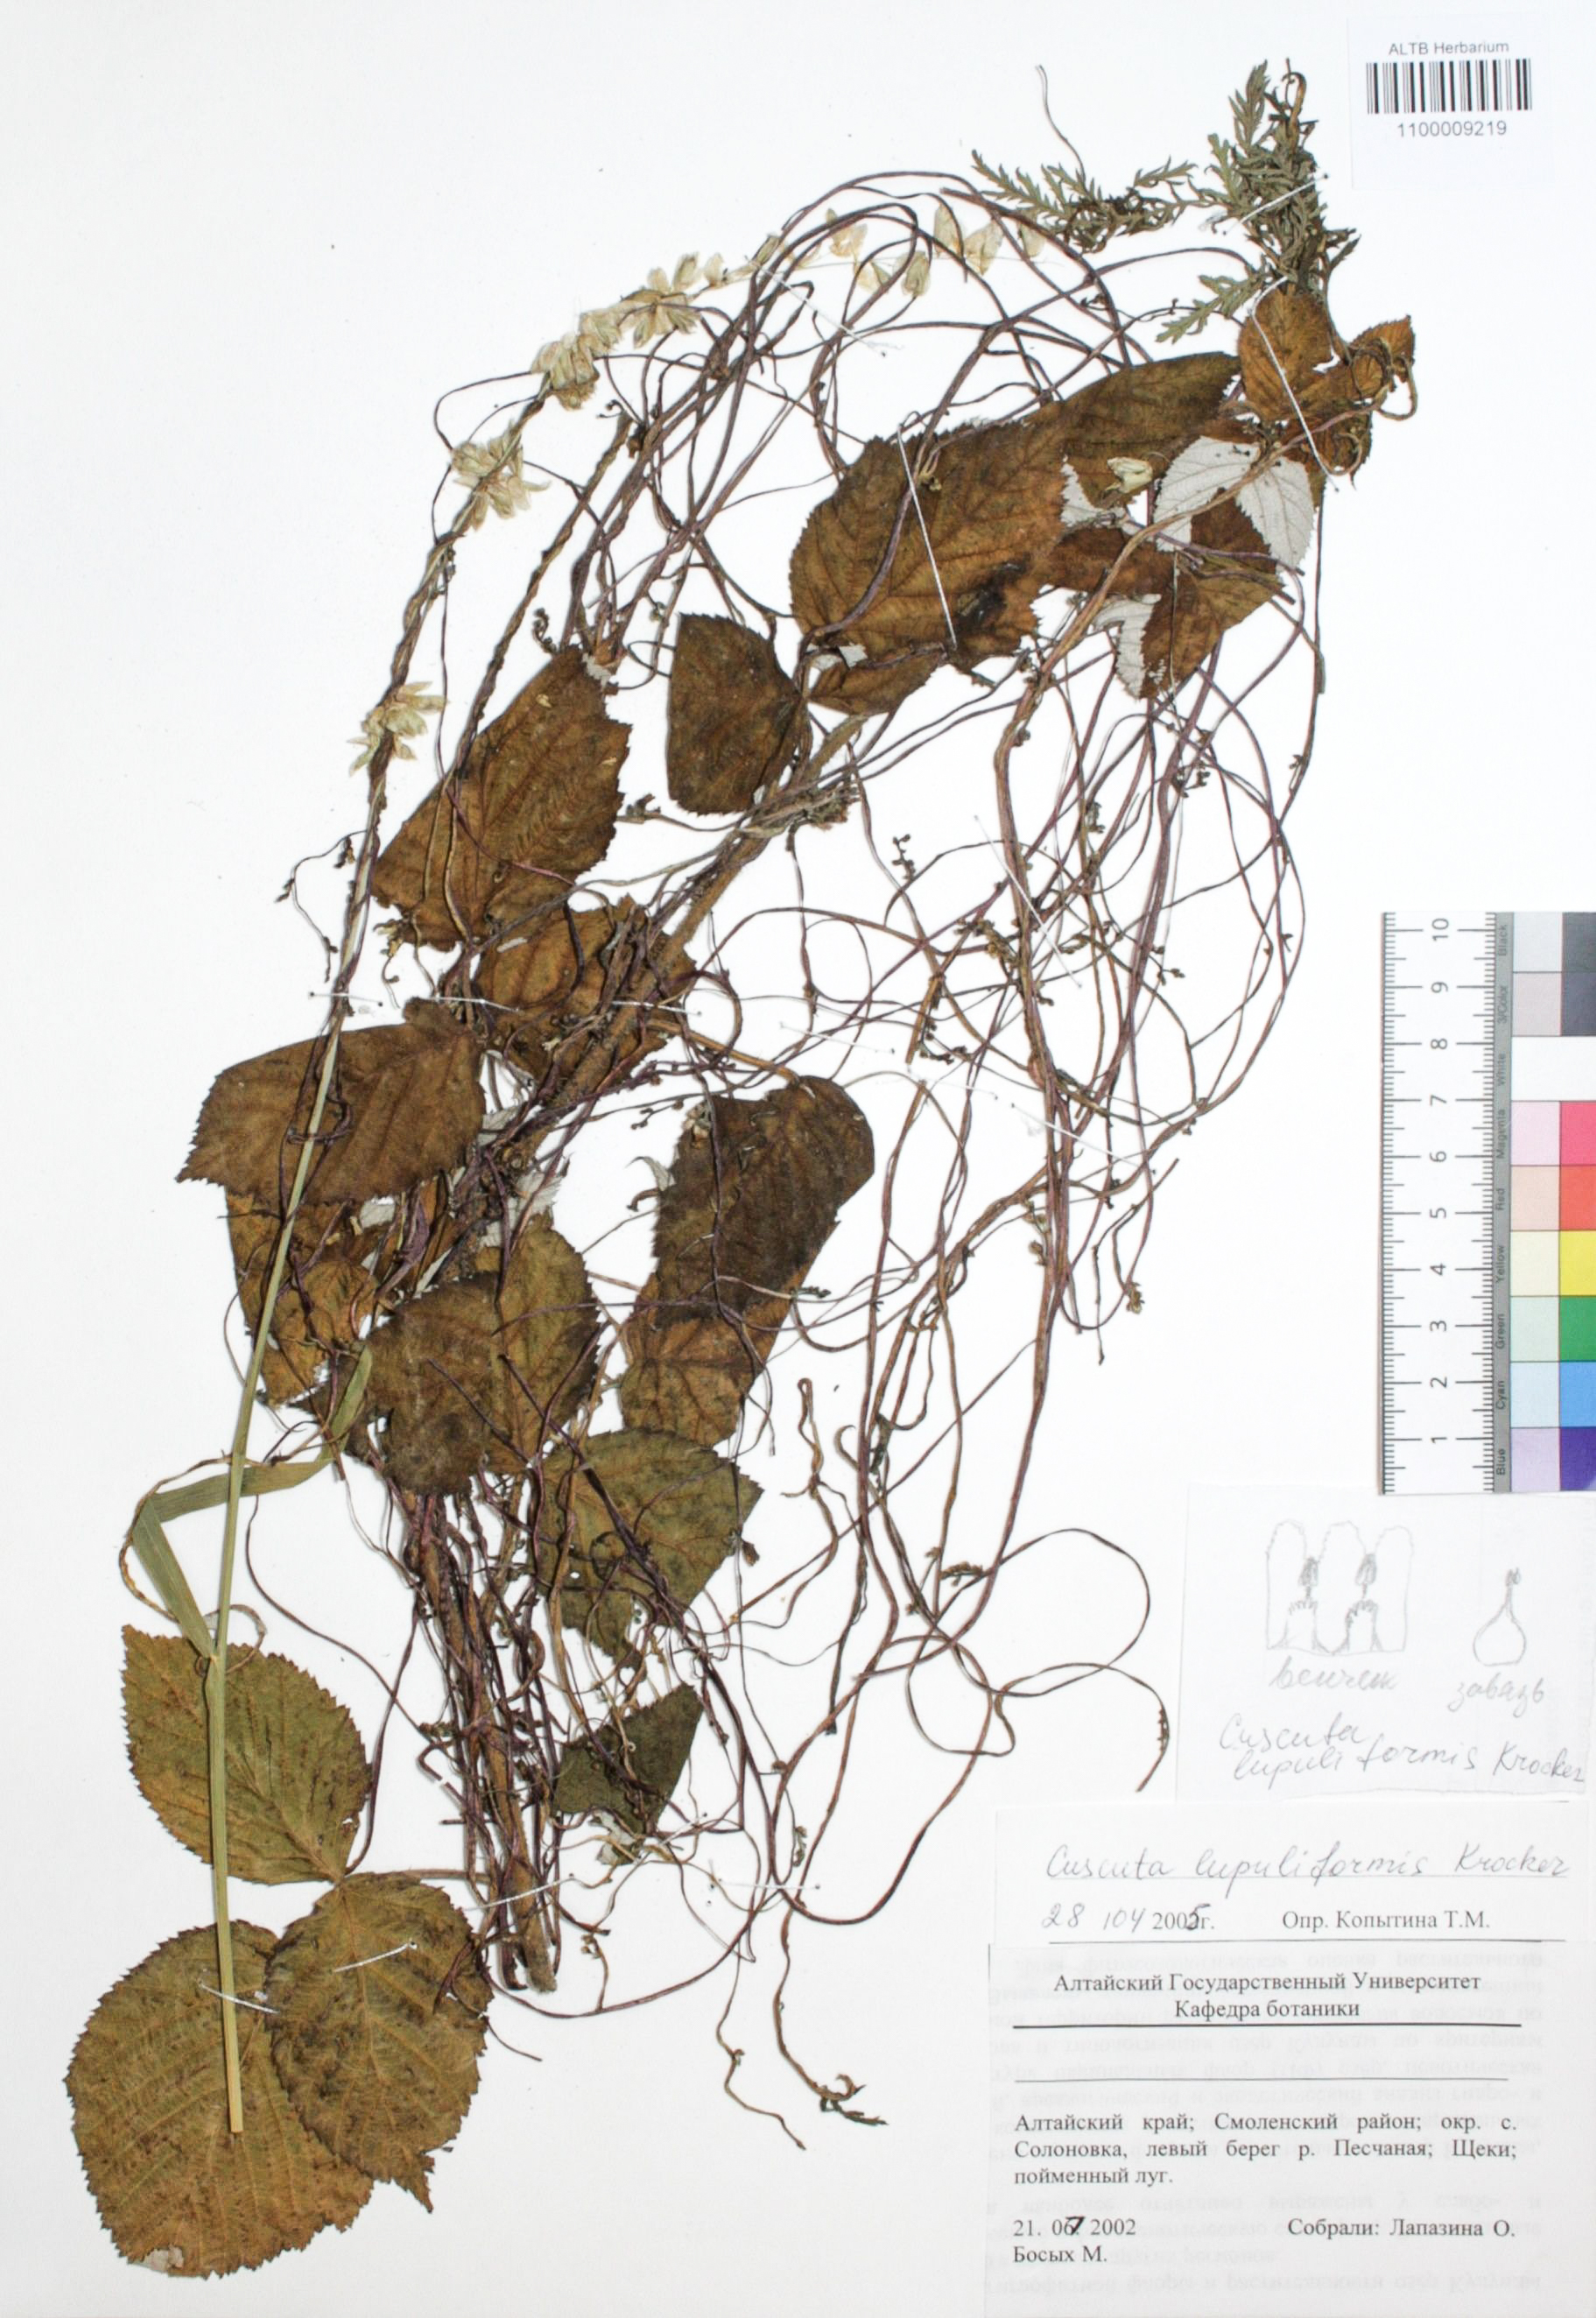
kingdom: Plantae
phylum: Tracheophyta
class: Magnoliopsida
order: Solanales
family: Convolvulaceae
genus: Cuscuta
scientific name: Cuscuta lupuliformis
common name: Hop dodder
